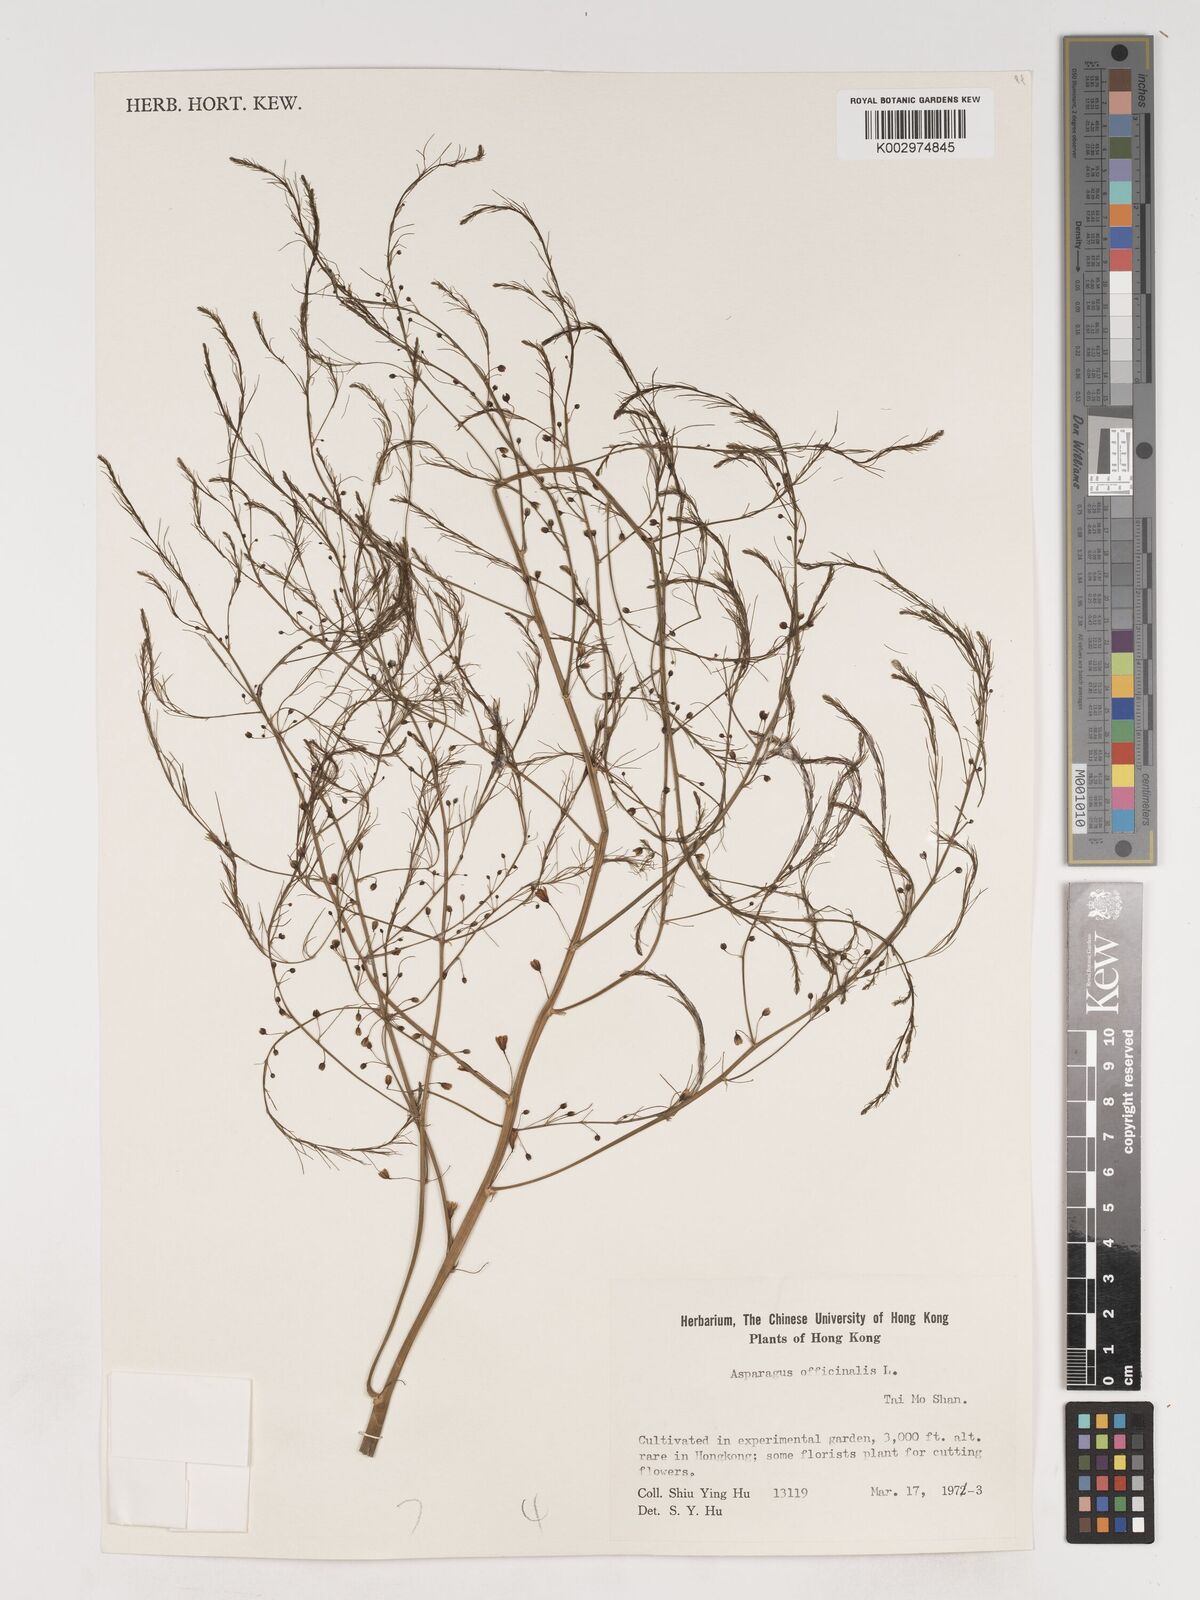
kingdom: Plantae
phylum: Tracheophyta
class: Liliopsida
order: Asparagales
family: Asparagaceae
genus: Asparagus
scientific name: Asparagus officinalis
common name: Garden asparagus
